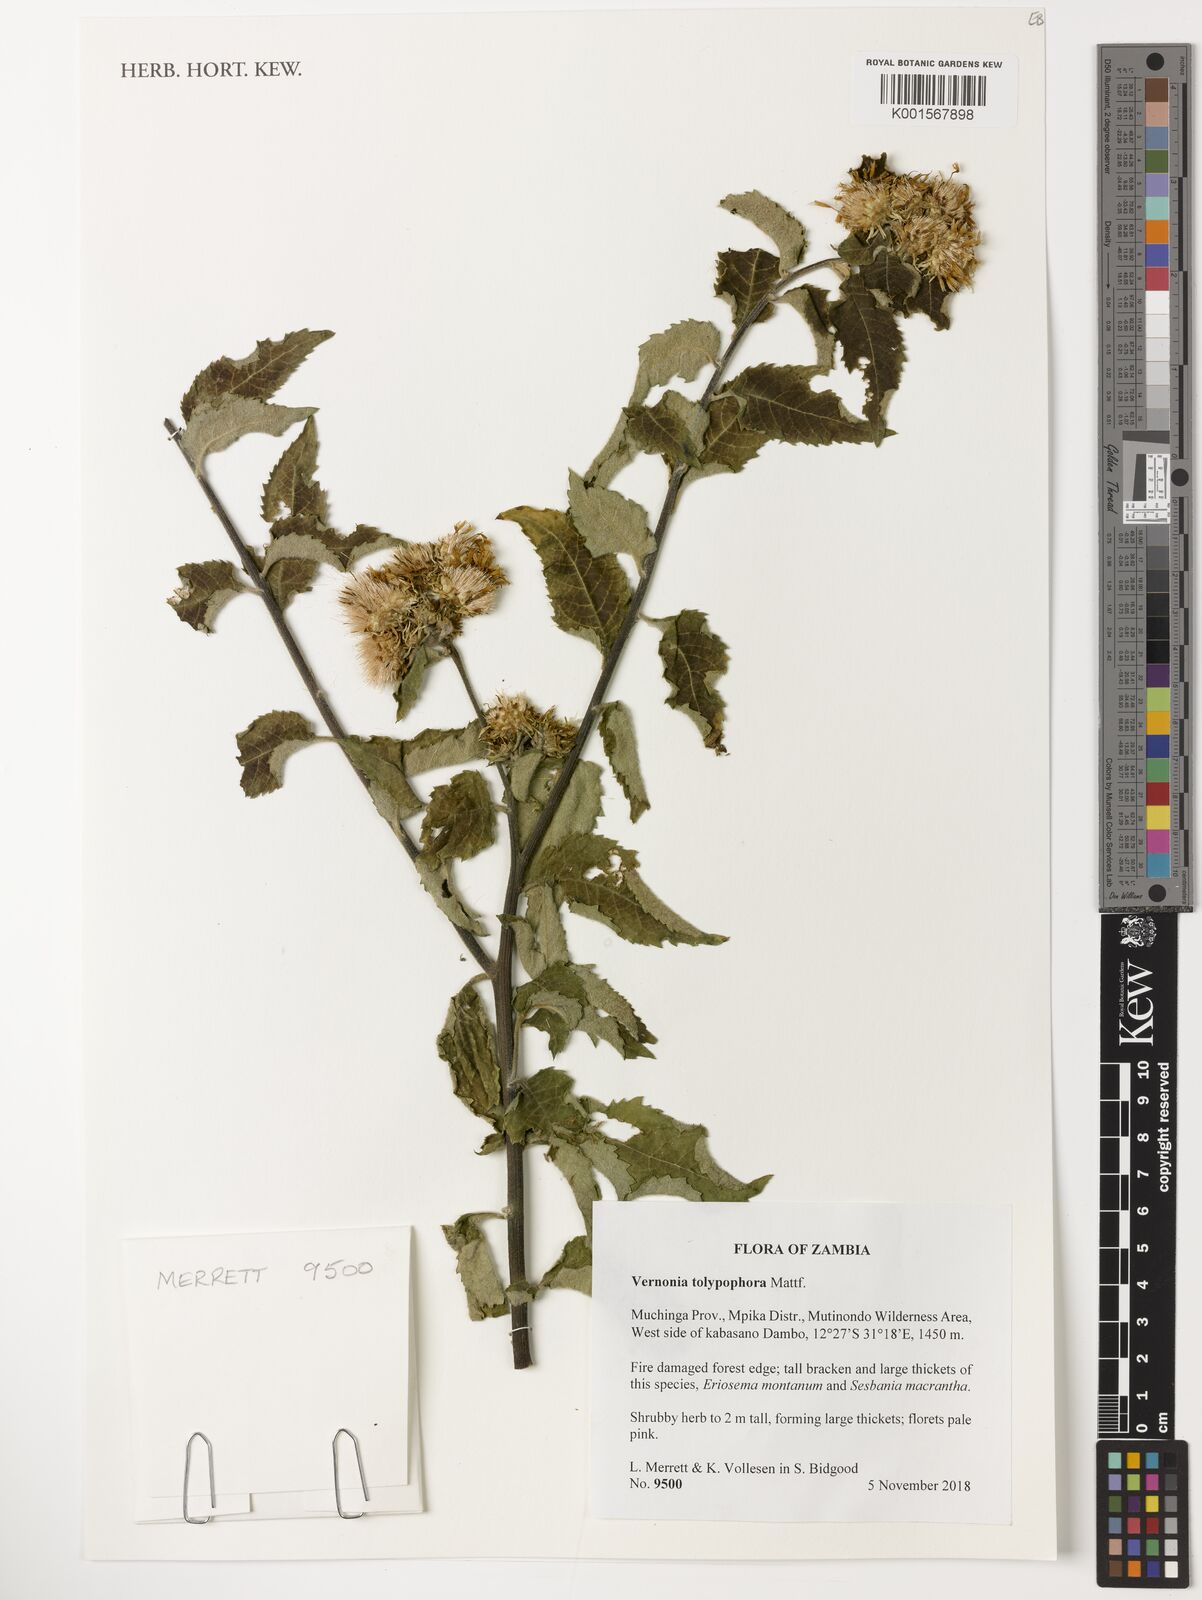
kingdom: Plantae
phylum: Tracheophyta
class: Magnoliopsida
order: Asterales
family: Asteraceae
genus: Baccharoides
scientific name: Baccharoides tolypophora
